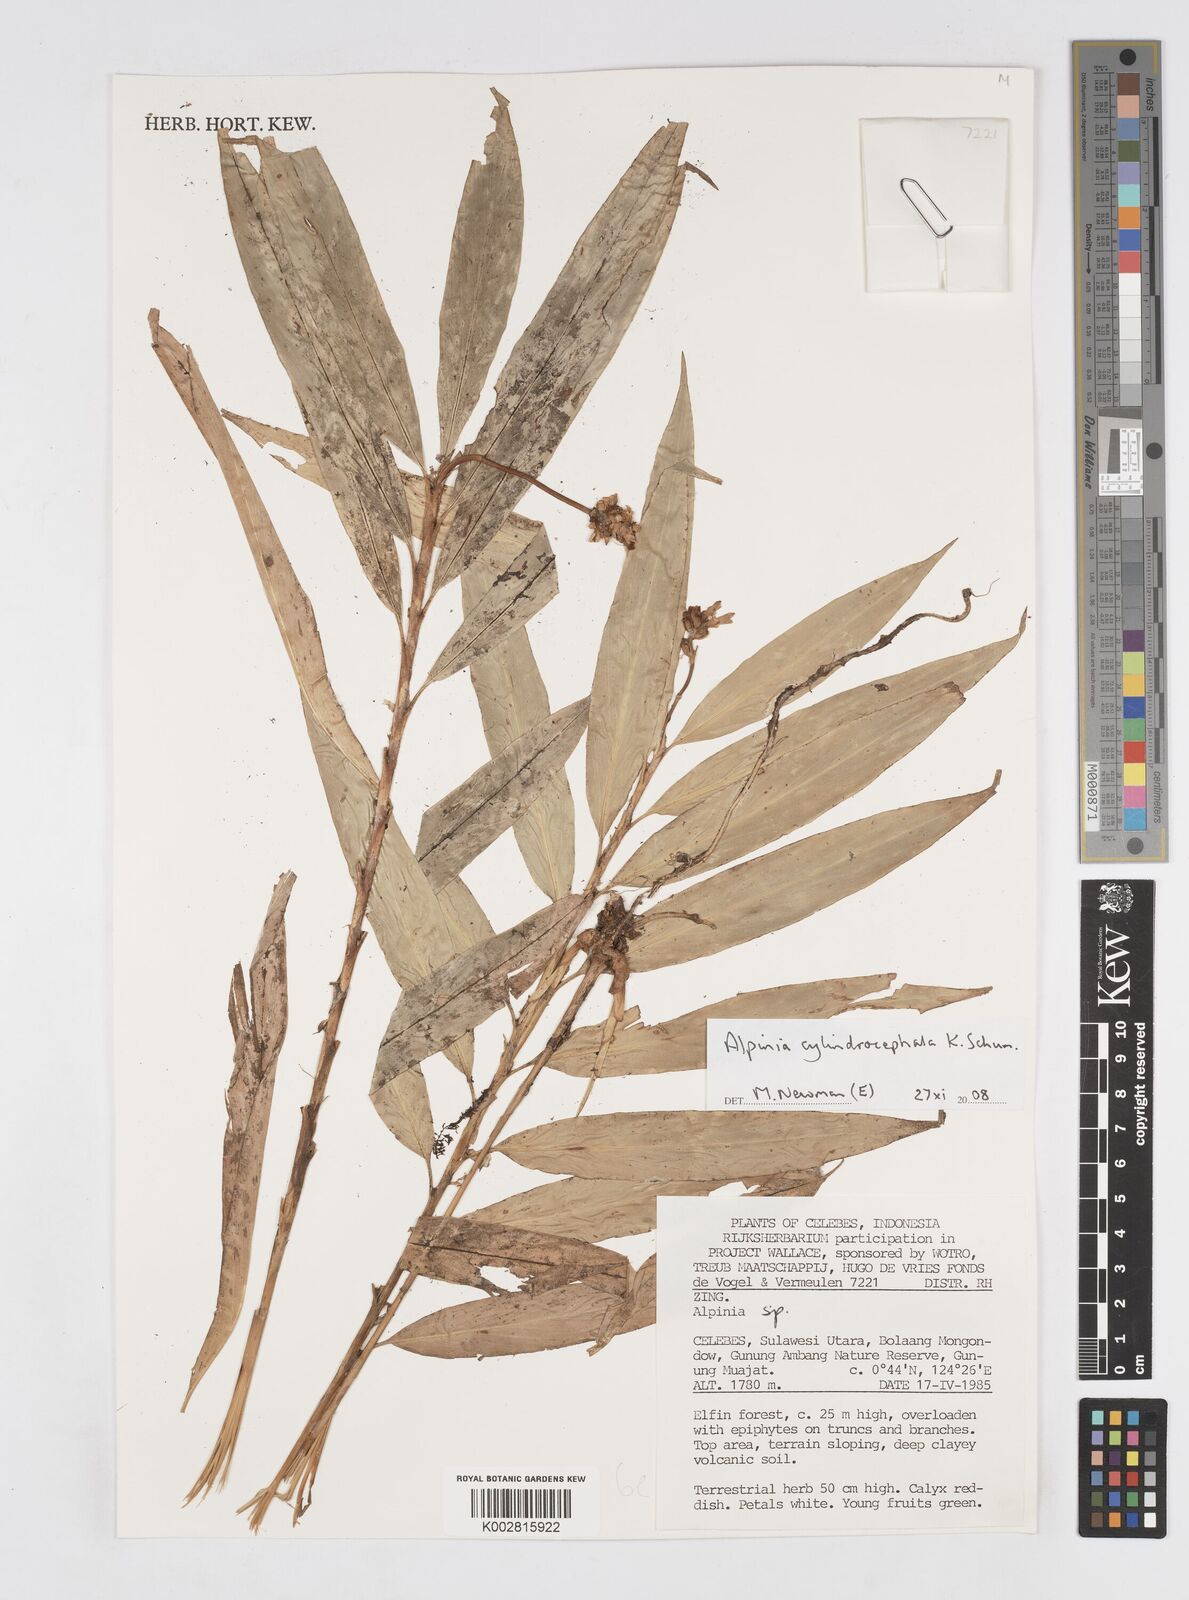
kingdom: Plantae
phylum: Tracheophyta
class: Liliopsida
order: Zingiberales
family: Zingiberaceae
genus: Alpinia
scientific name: Alpinia cylindrocephala
